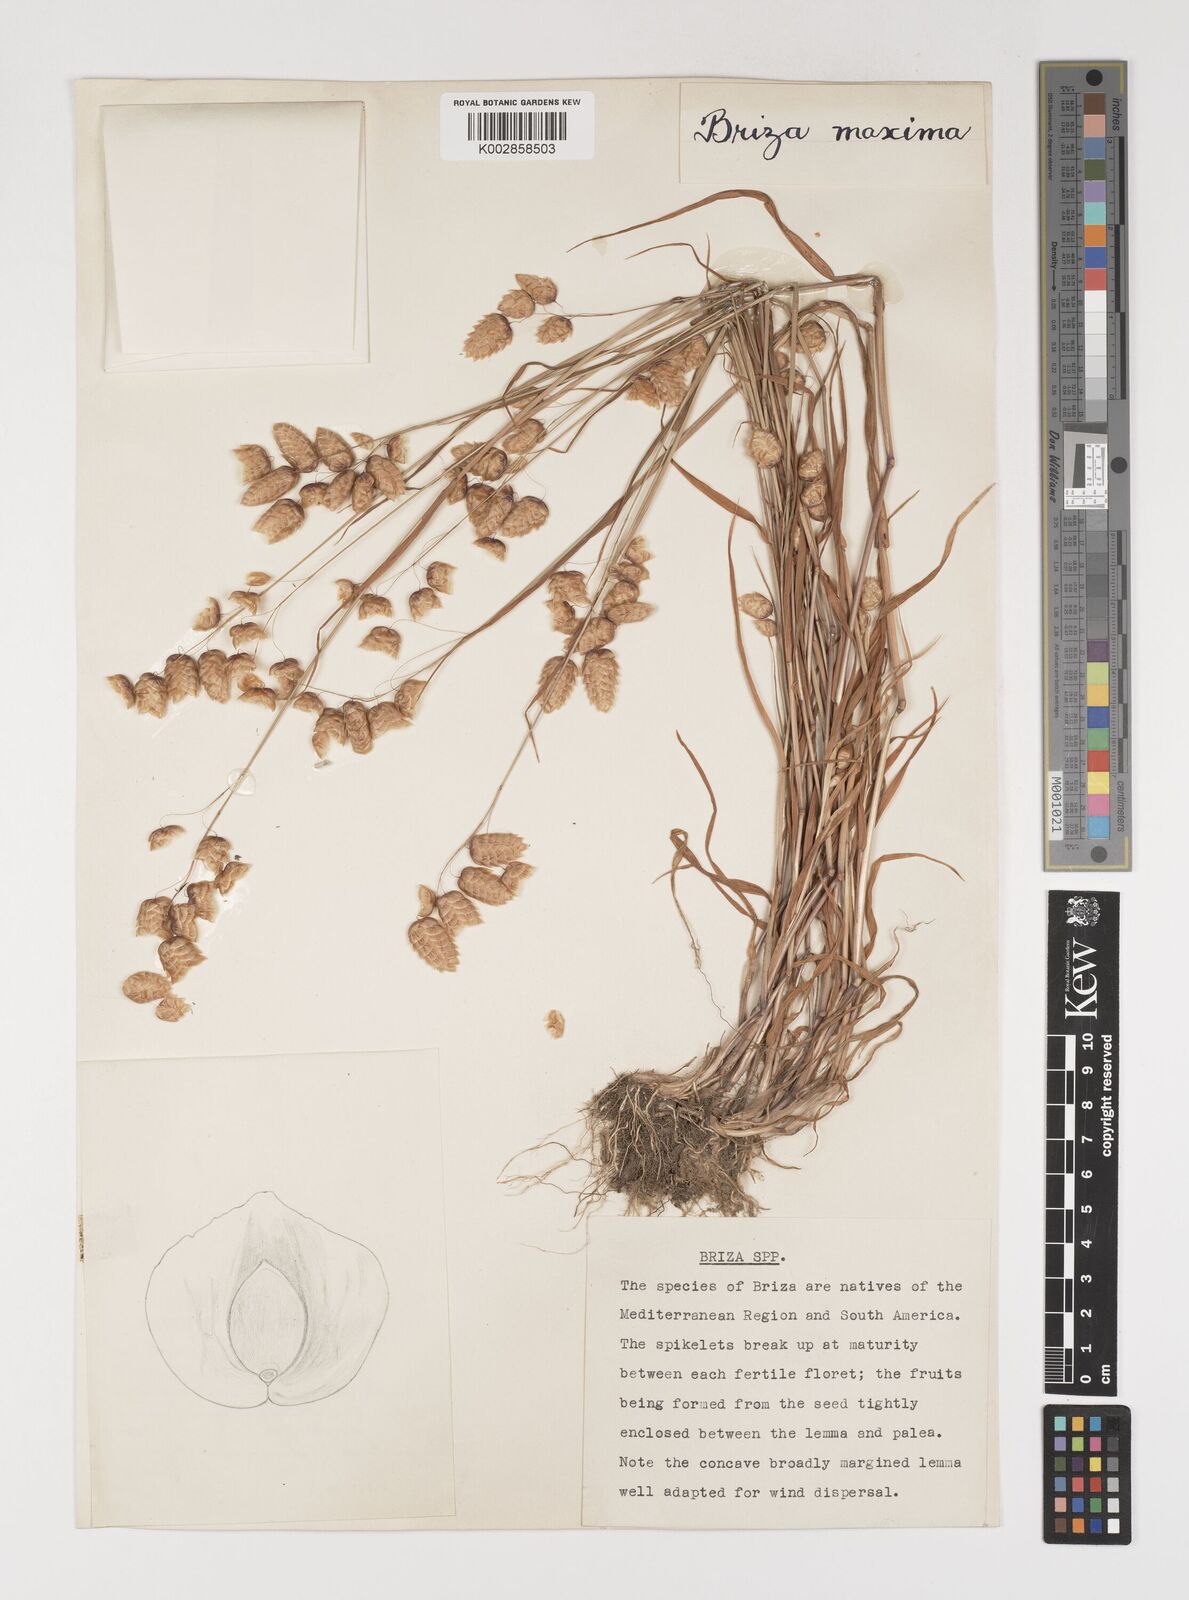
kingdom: Plantae
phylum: Tracheophyta
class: Liliopsida
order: Poales
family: Poaceae
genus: Briza
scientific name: Briza maxima
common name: Big quakinggrass
